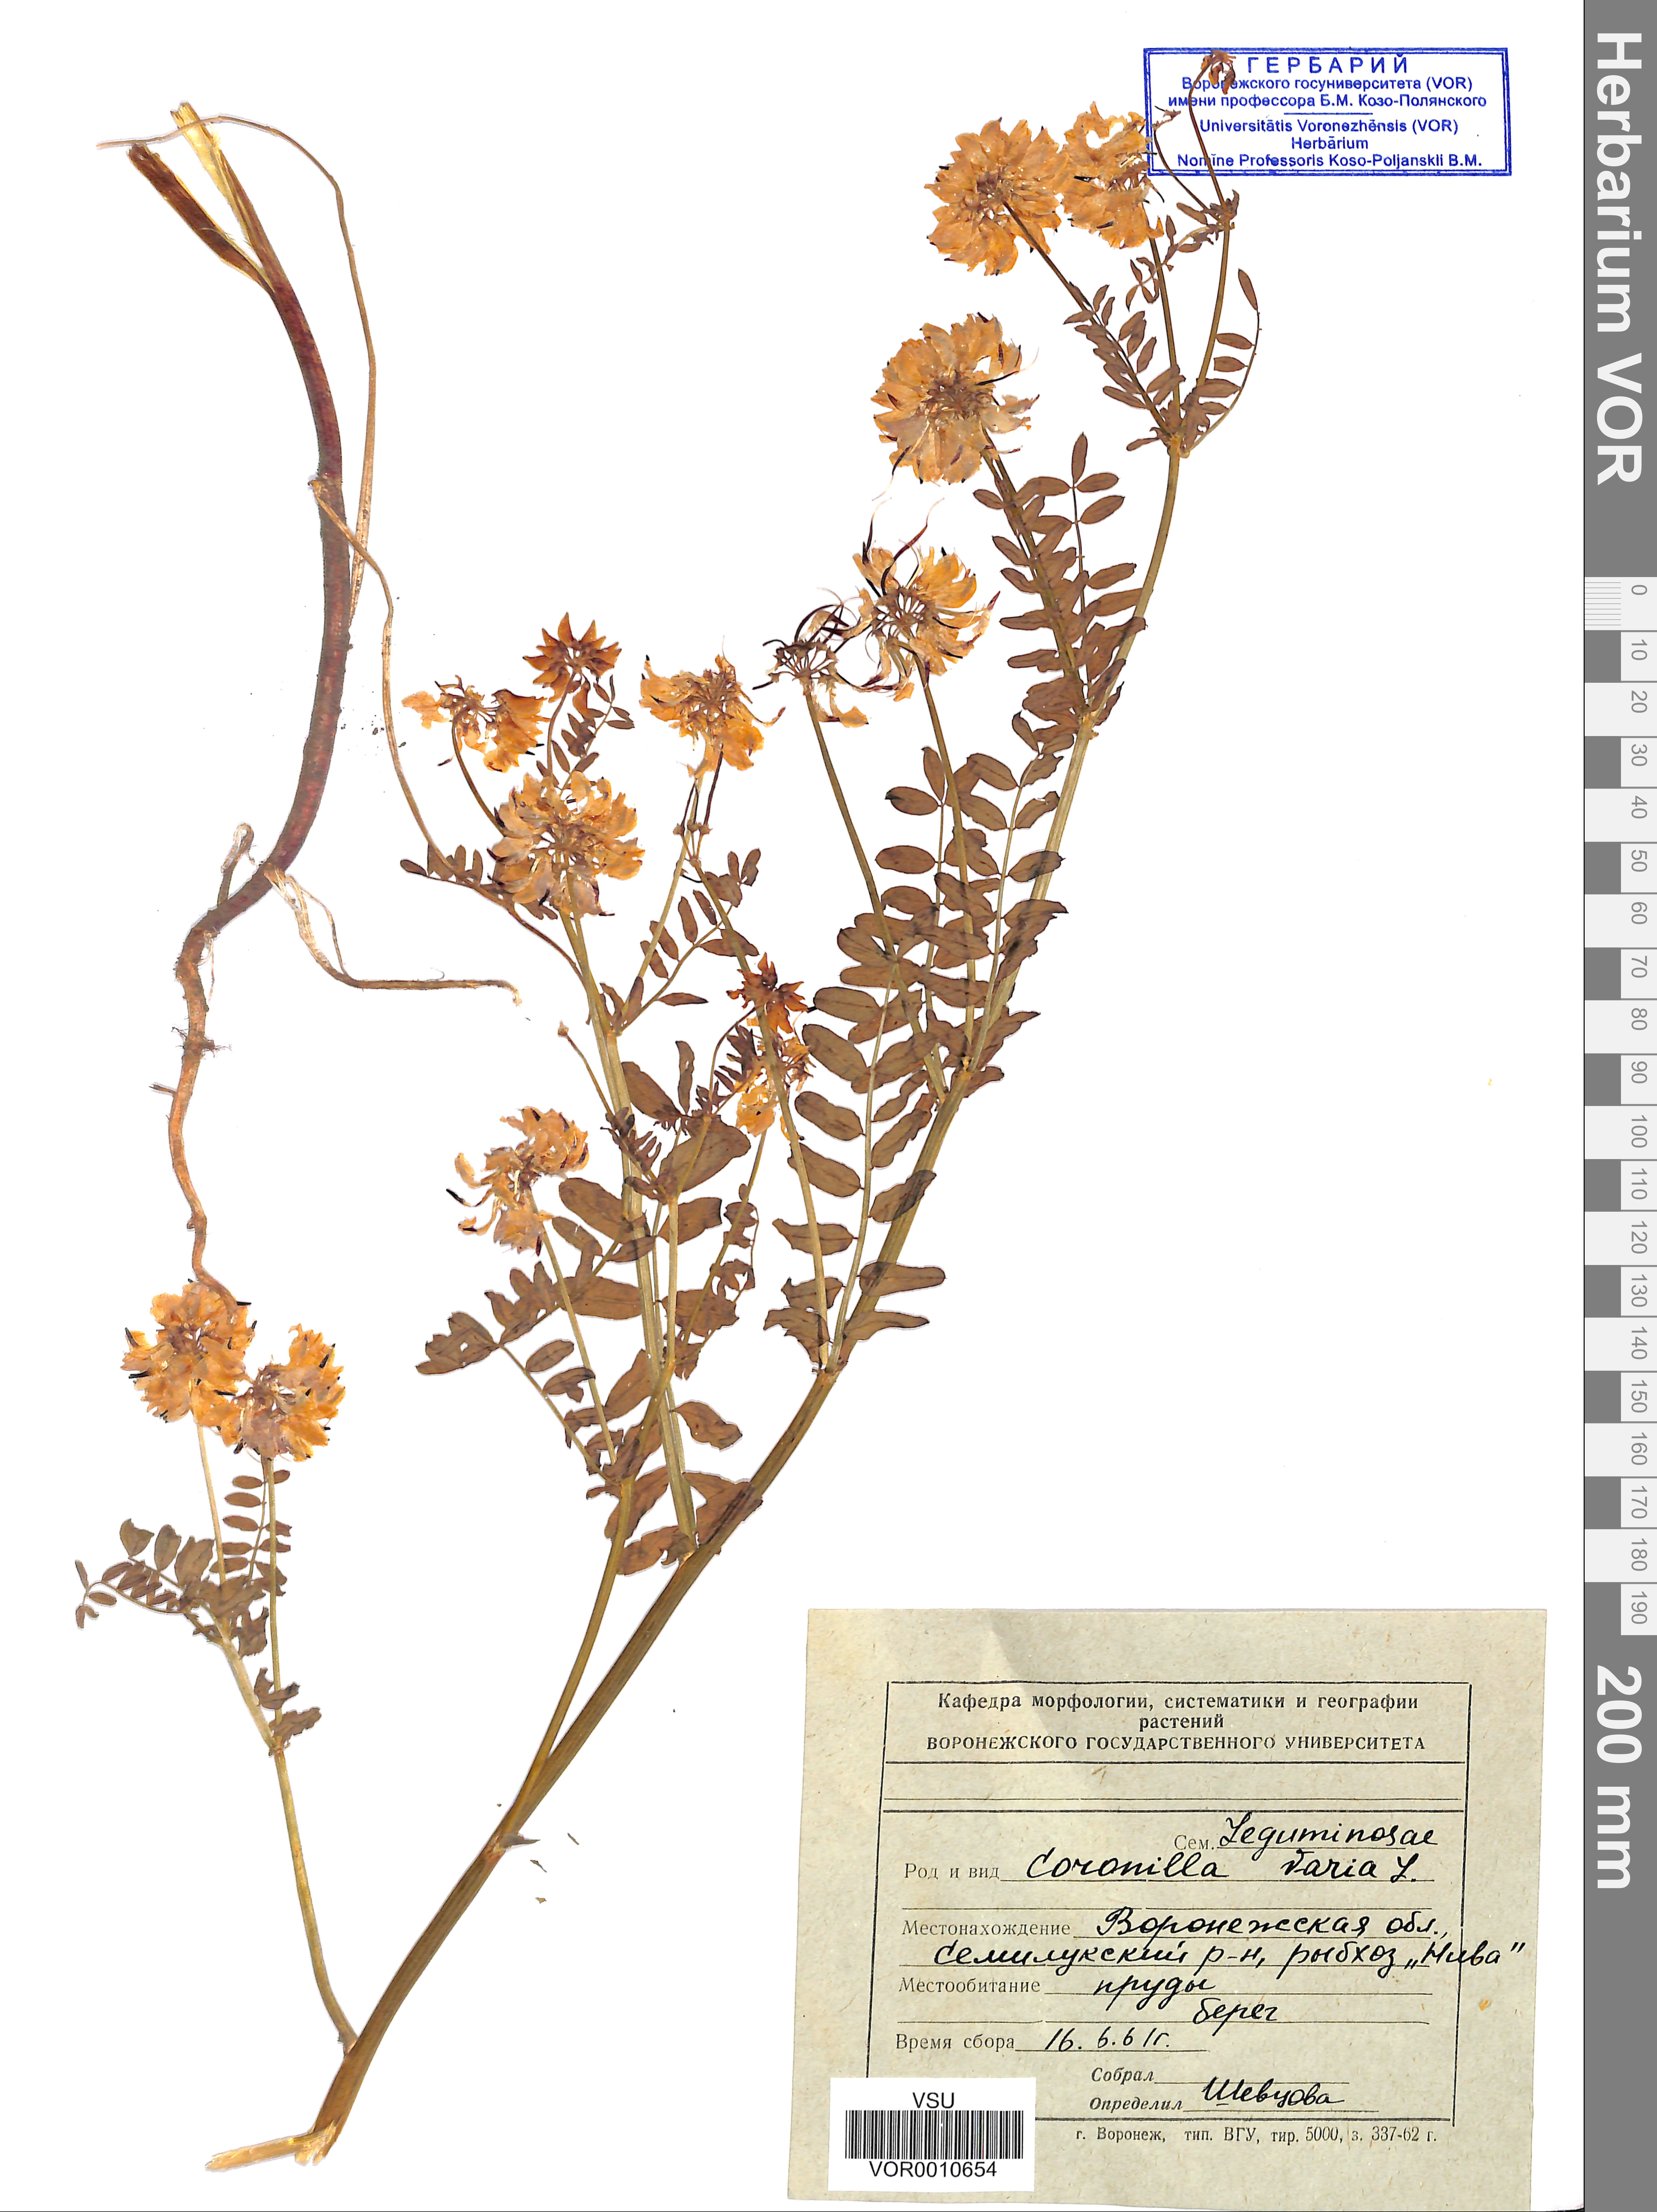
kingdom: Plantae
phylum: Tracheophyta
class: Magnoliopsida
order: Fabales
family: Fabaceae
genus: Coronilla
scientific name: Coronilla varia
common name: Crownvetch
